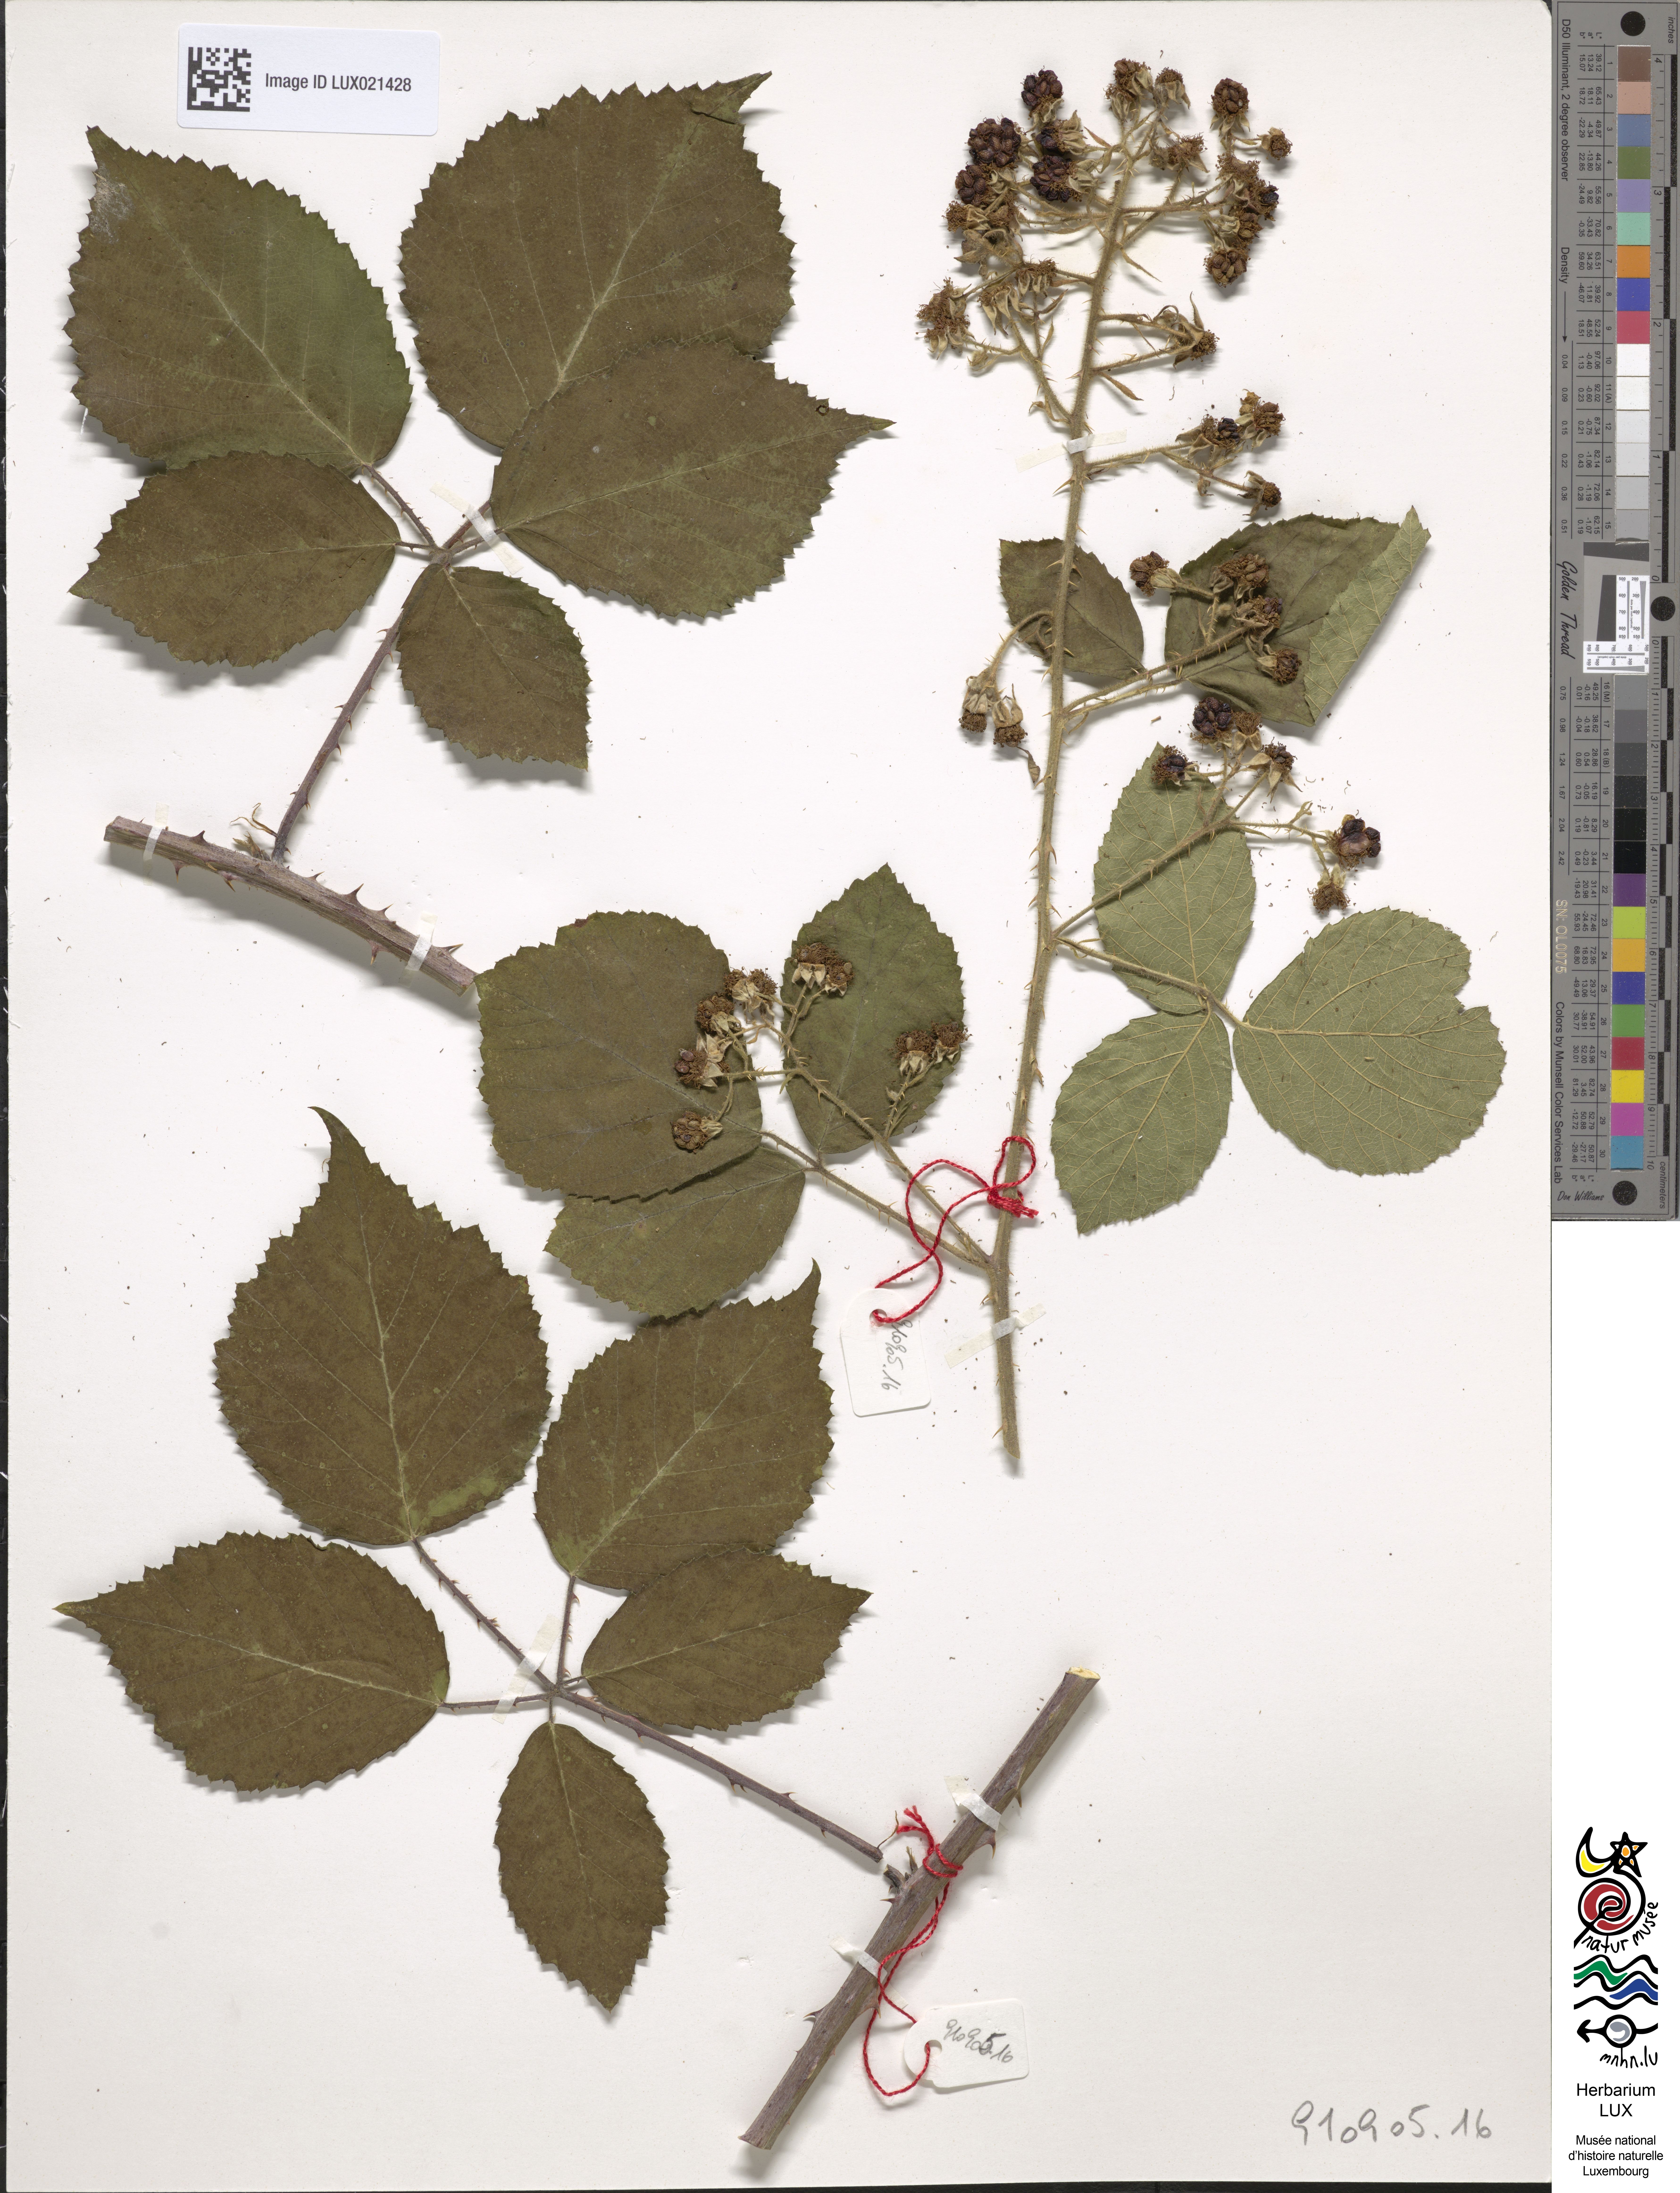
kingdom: Plantae
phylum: Tracheophyta
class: Magnoliopsida
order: Rosales
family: Rosaceae
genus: Rubus
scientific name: Rubus
